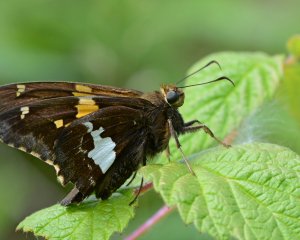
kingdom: Animalia
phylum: Arthropoda
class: Insecta
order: Lepidoptera
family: Hesperiidae
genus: Epargyreus
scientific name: Epargyreus clarus
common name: Silver-spotted Skipper
